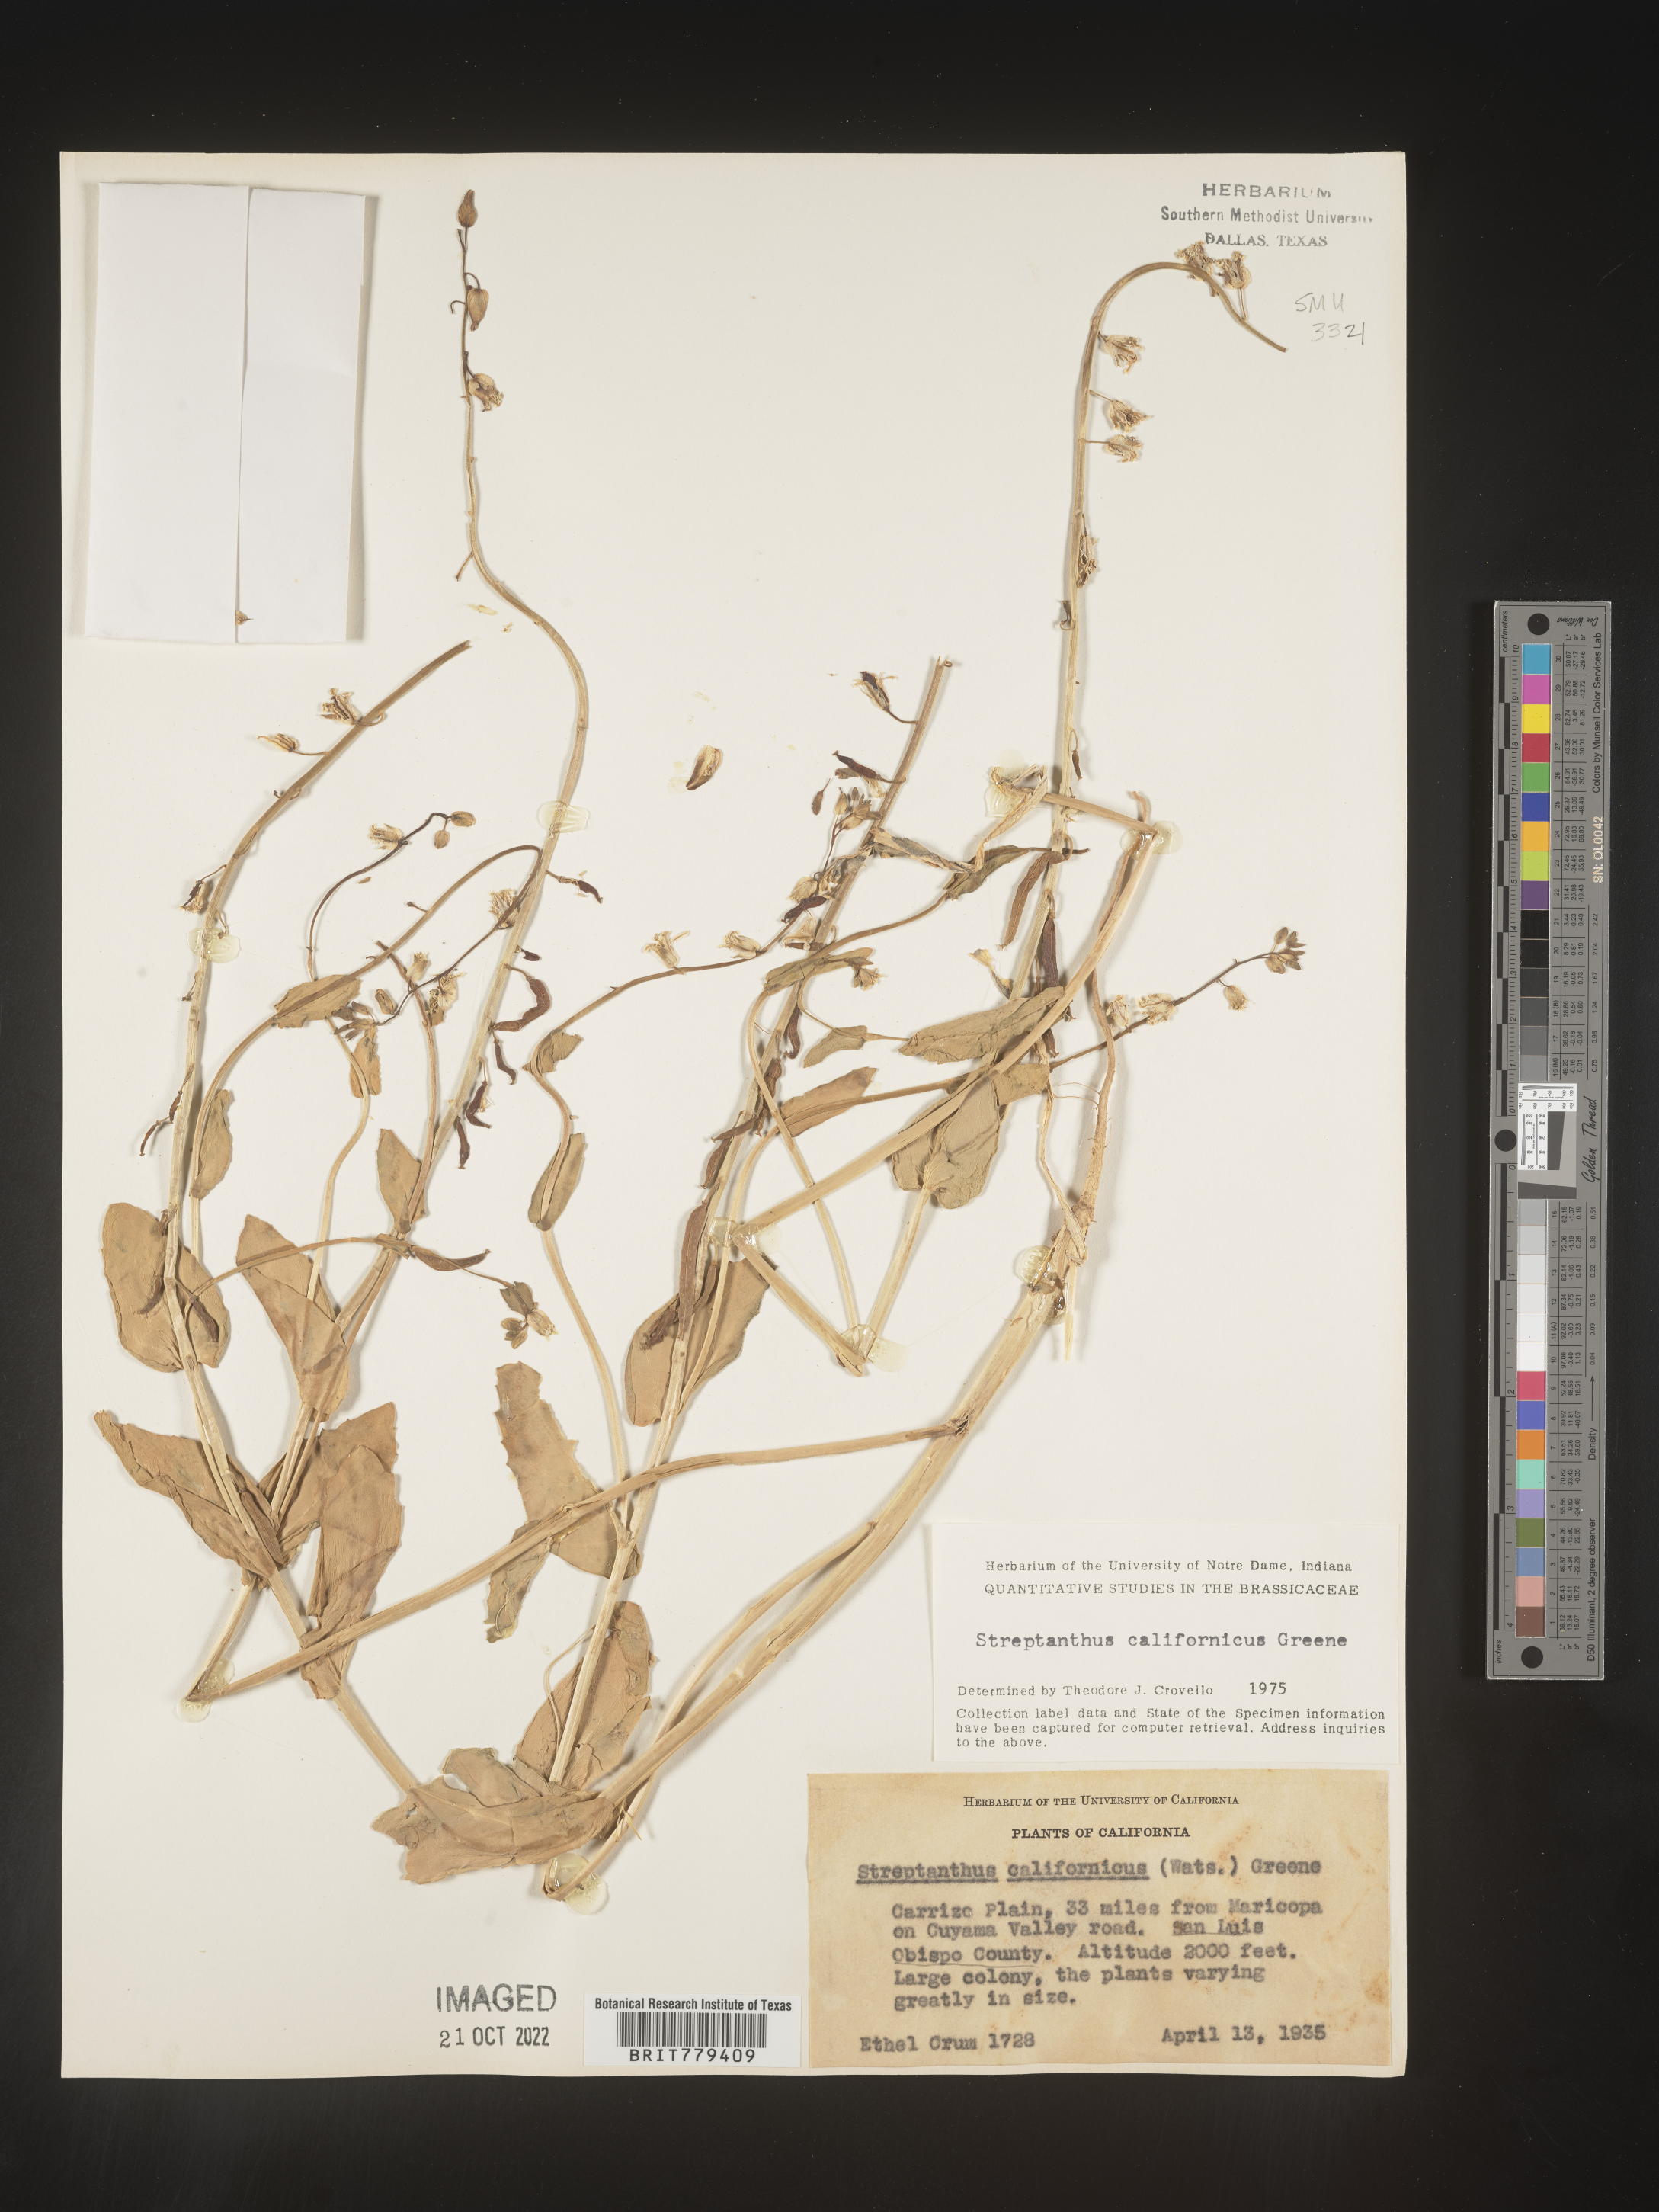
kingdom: Plantae
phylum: Tracheophyta
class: Magnoliopsida
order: Brassicales
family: Brassicaceae
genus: Streptanthus
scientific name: Streptanthus
